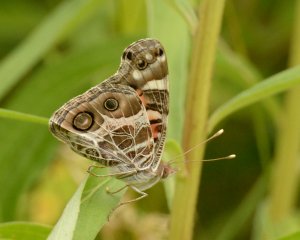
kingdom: Animalia
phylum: Arthropoda
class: Insecta
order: Lepidoptera
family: Nymphalidae
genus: Vanessa
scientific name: Vanessa virginiensis
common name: American Lady
